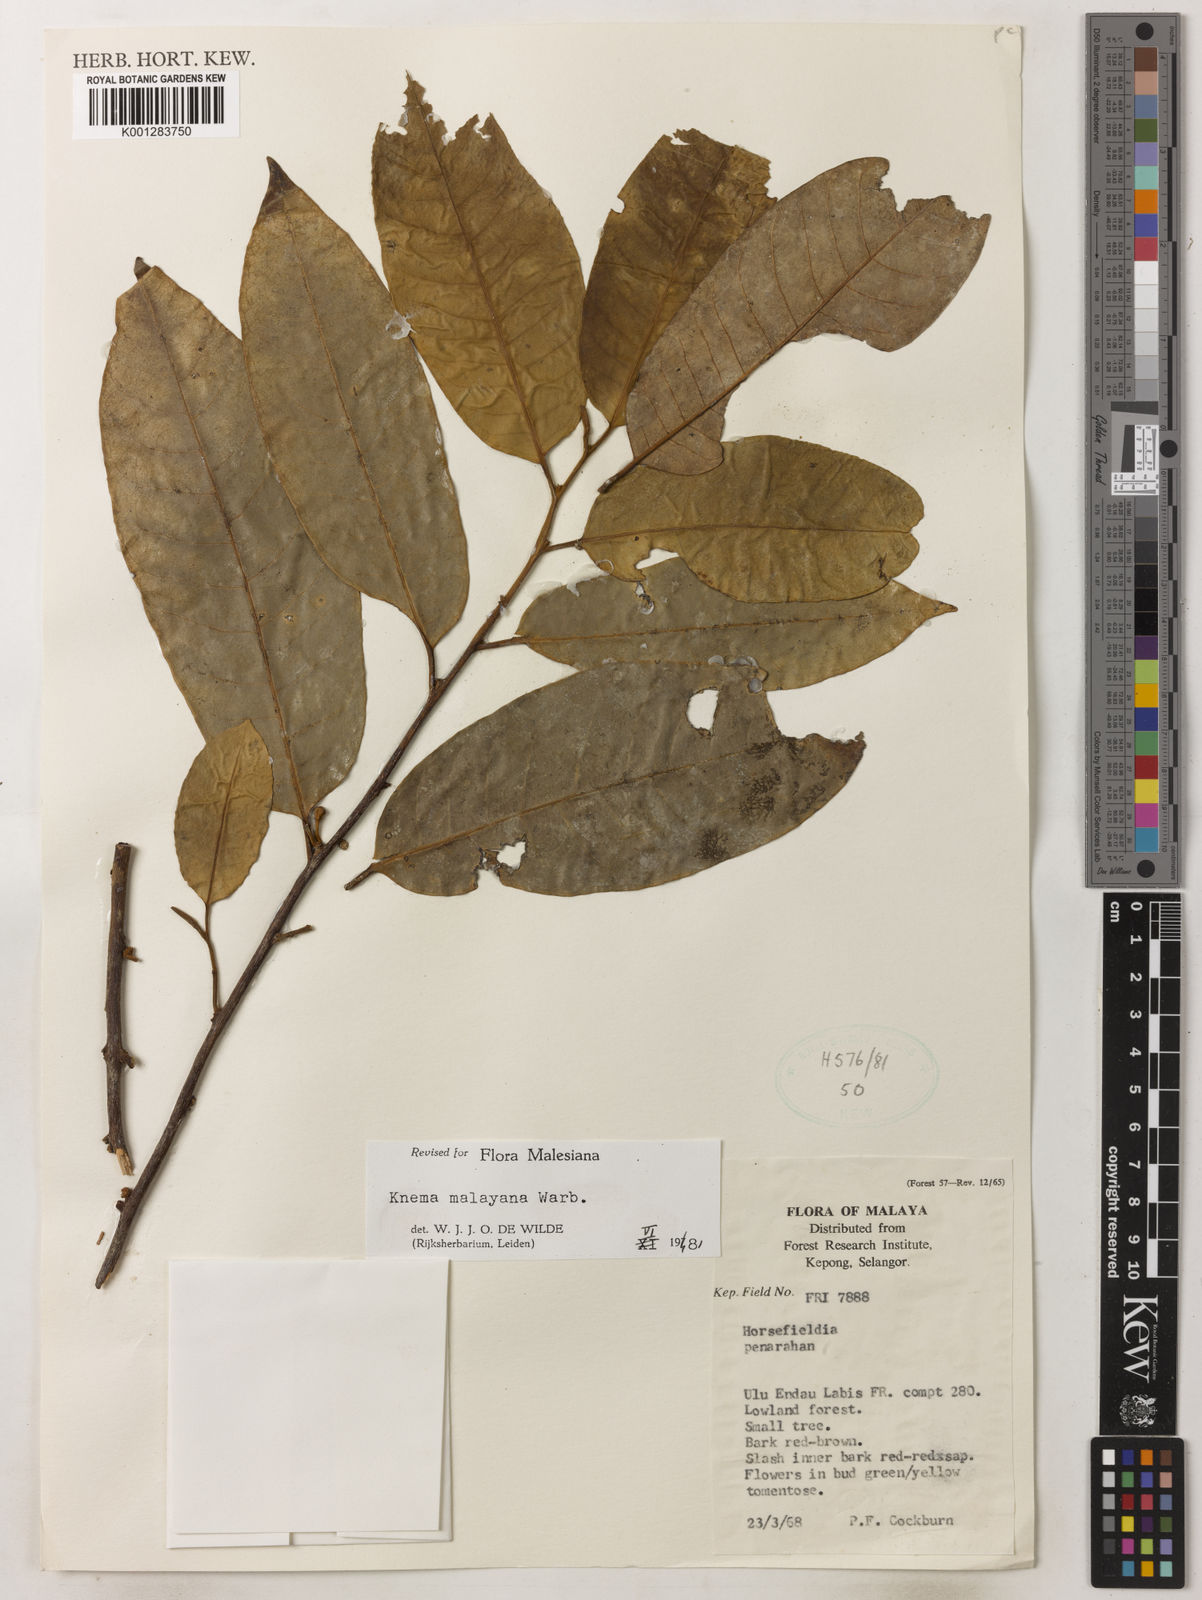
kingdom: Plantae
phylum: Tracheophyta
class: Magnoliopsida
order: Magnoliales
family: Myristicaceae
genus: Knema
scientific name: Knema malayana
